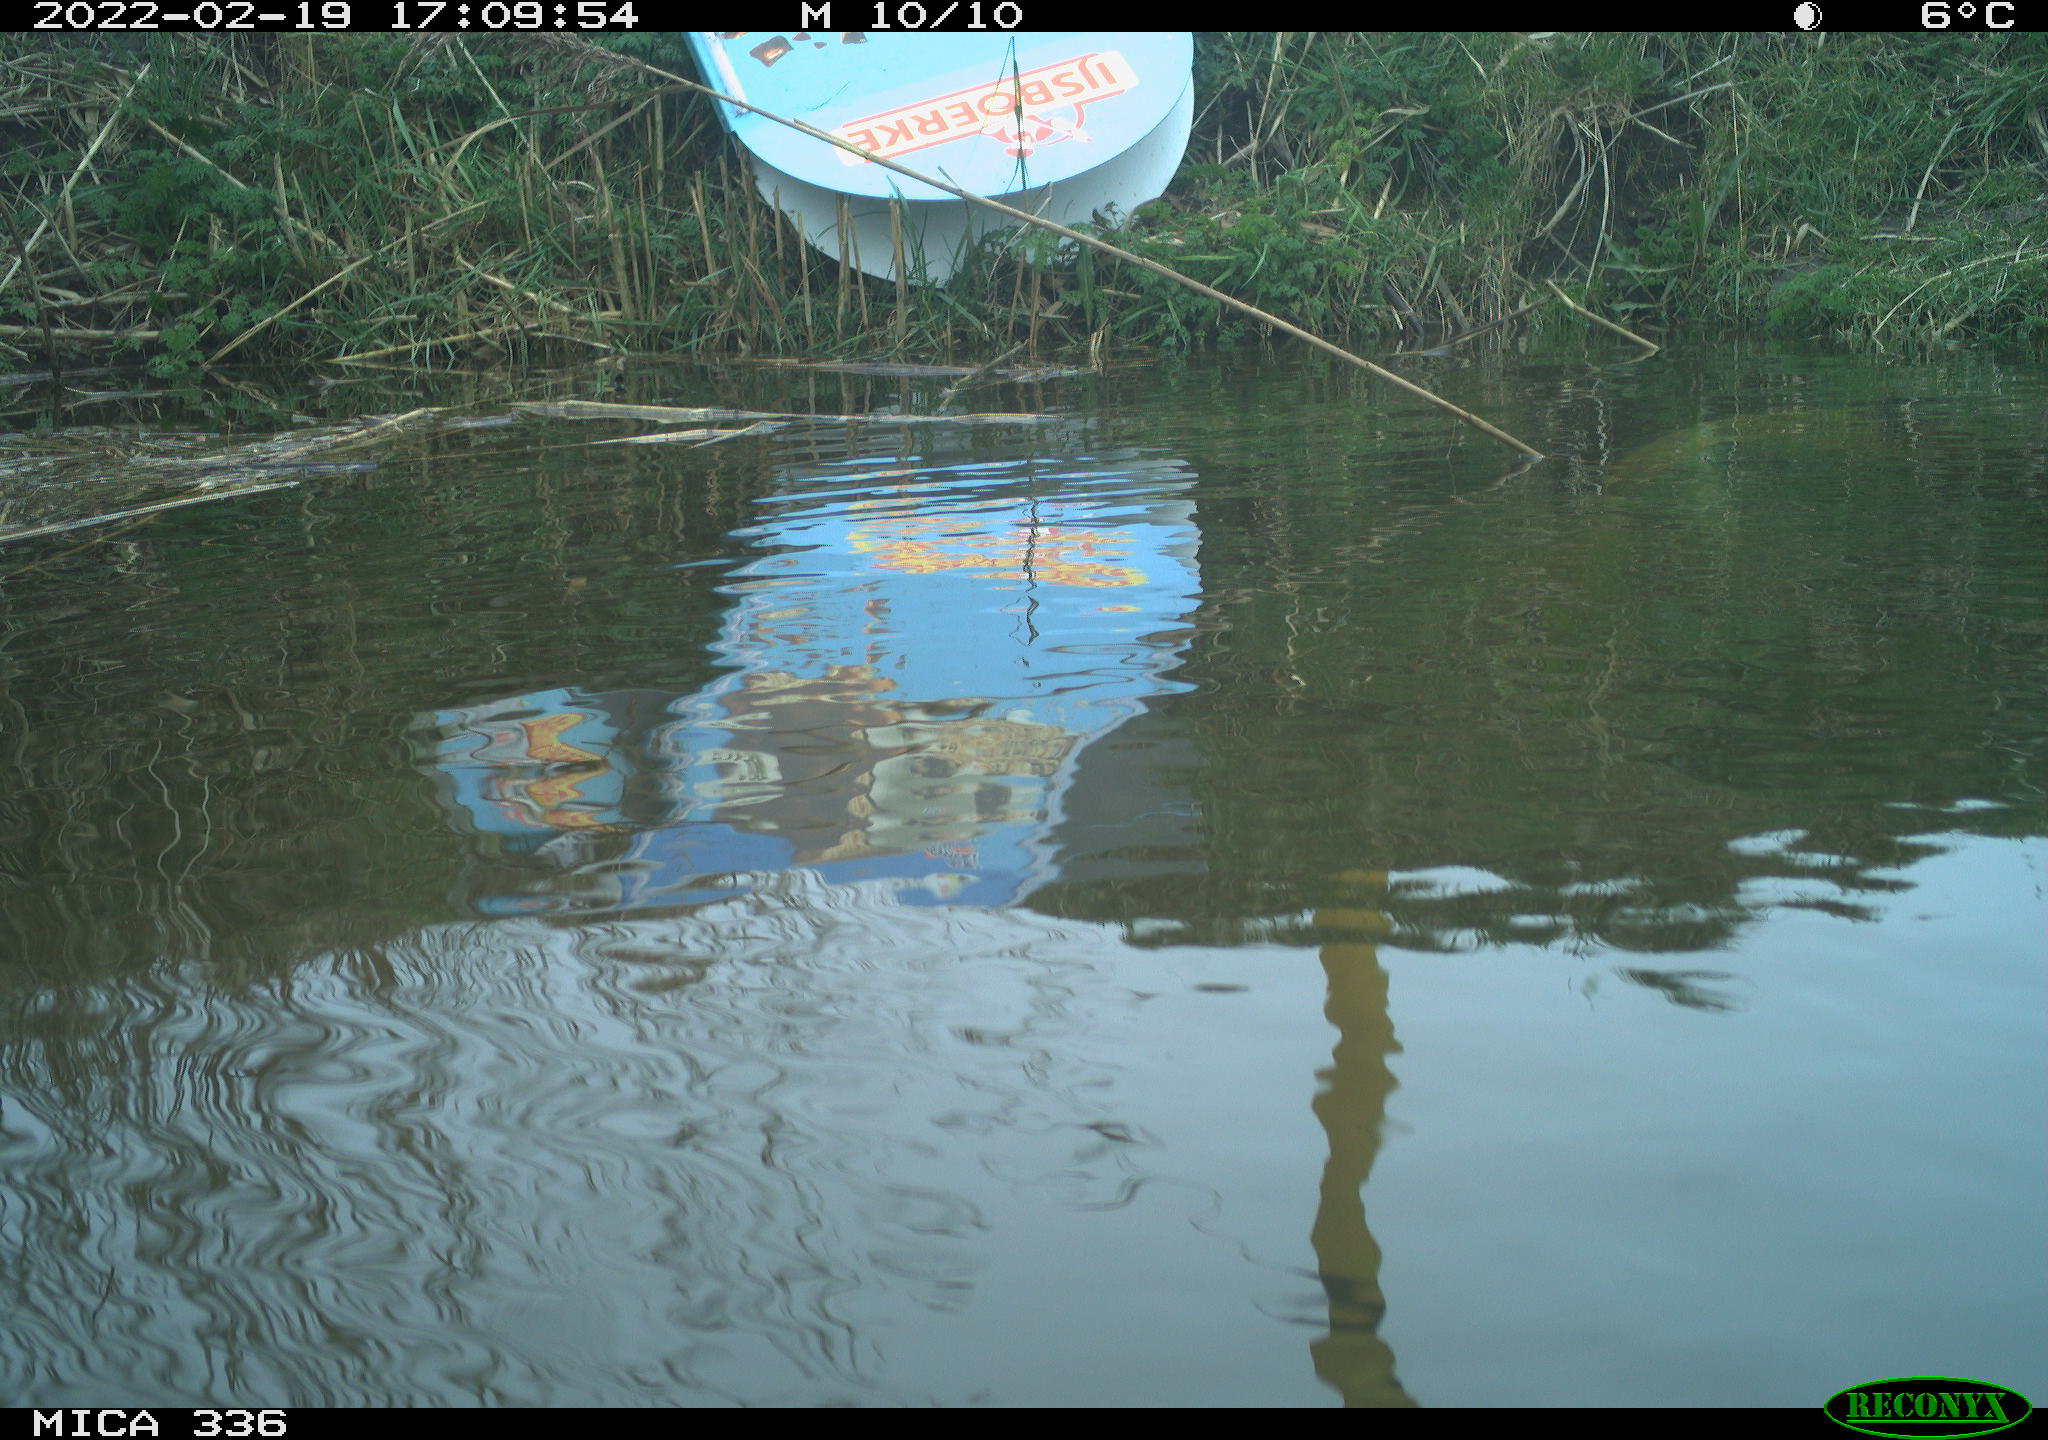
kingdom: Animalia
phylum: Chordata
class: Aves
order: Podicipediformes
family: Podicipedidae
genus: Podiceps
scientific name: Podiceps cristatus
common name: Great crested grebe
